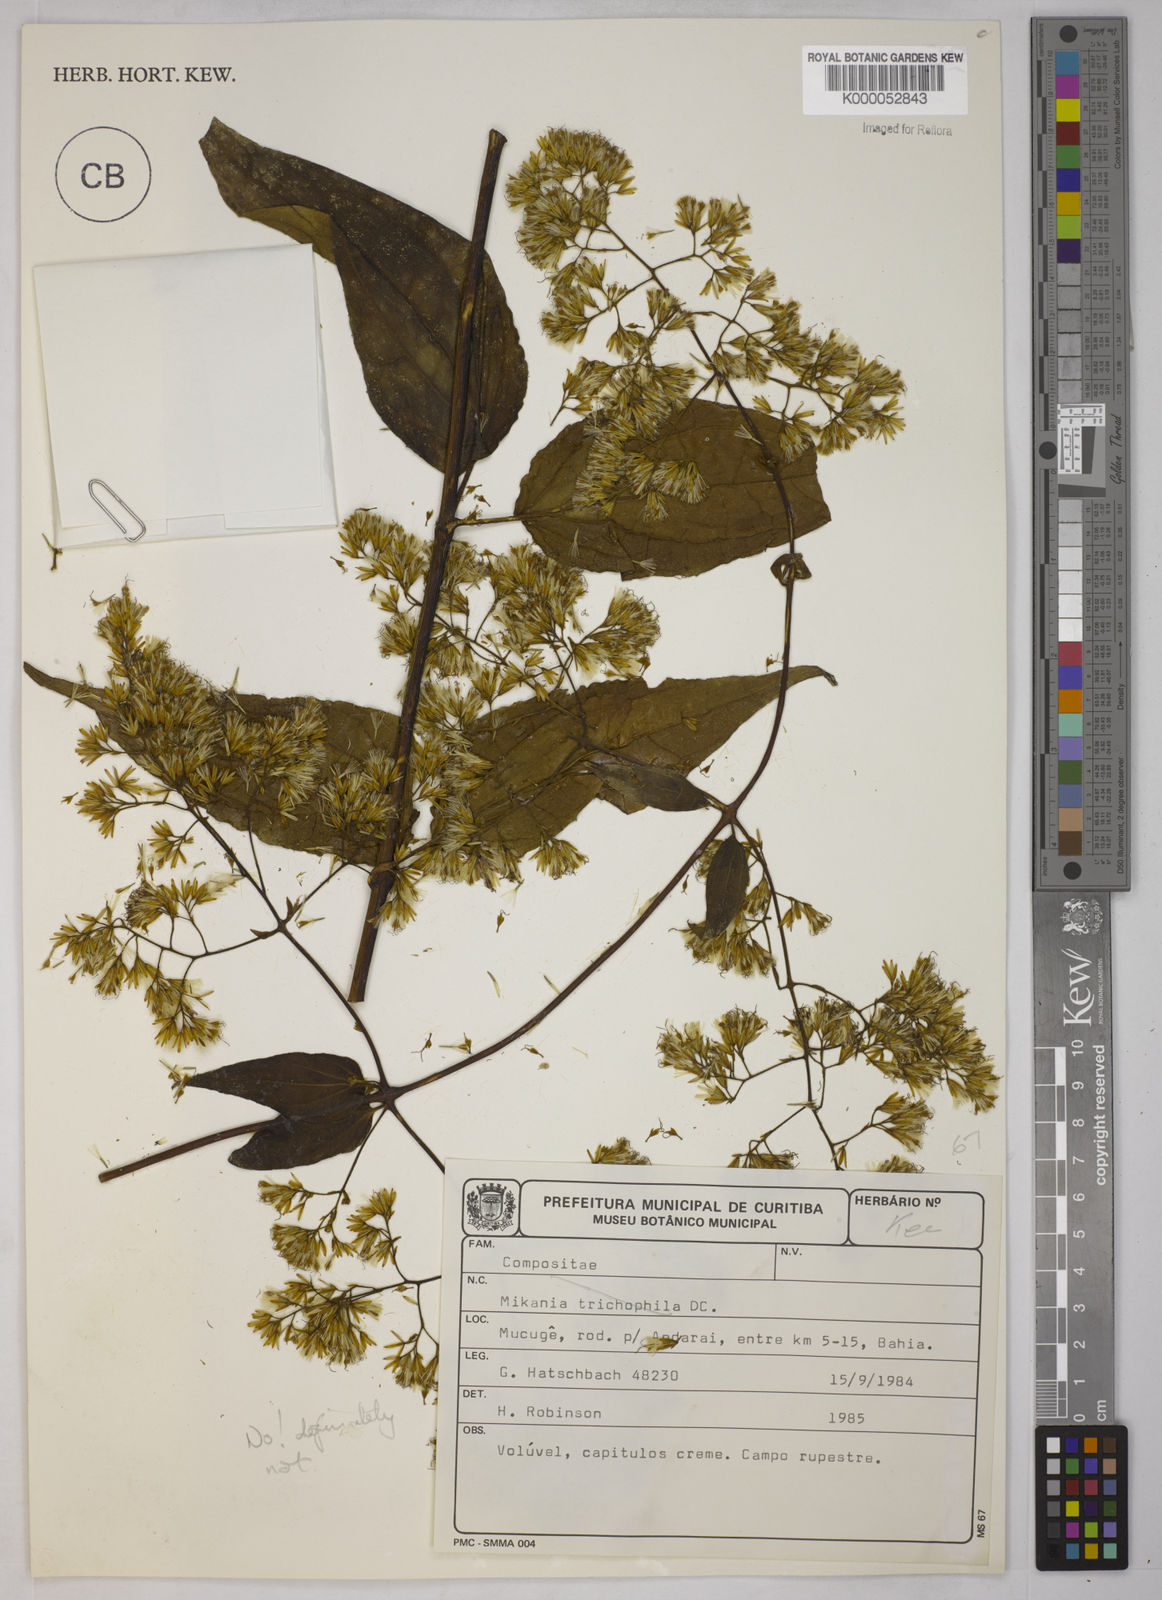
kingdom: Plantae
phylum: Tracheophyta
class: Magnoliopsida
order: Asterales
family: Asteraceae
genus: Mikania
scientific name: Mikania
